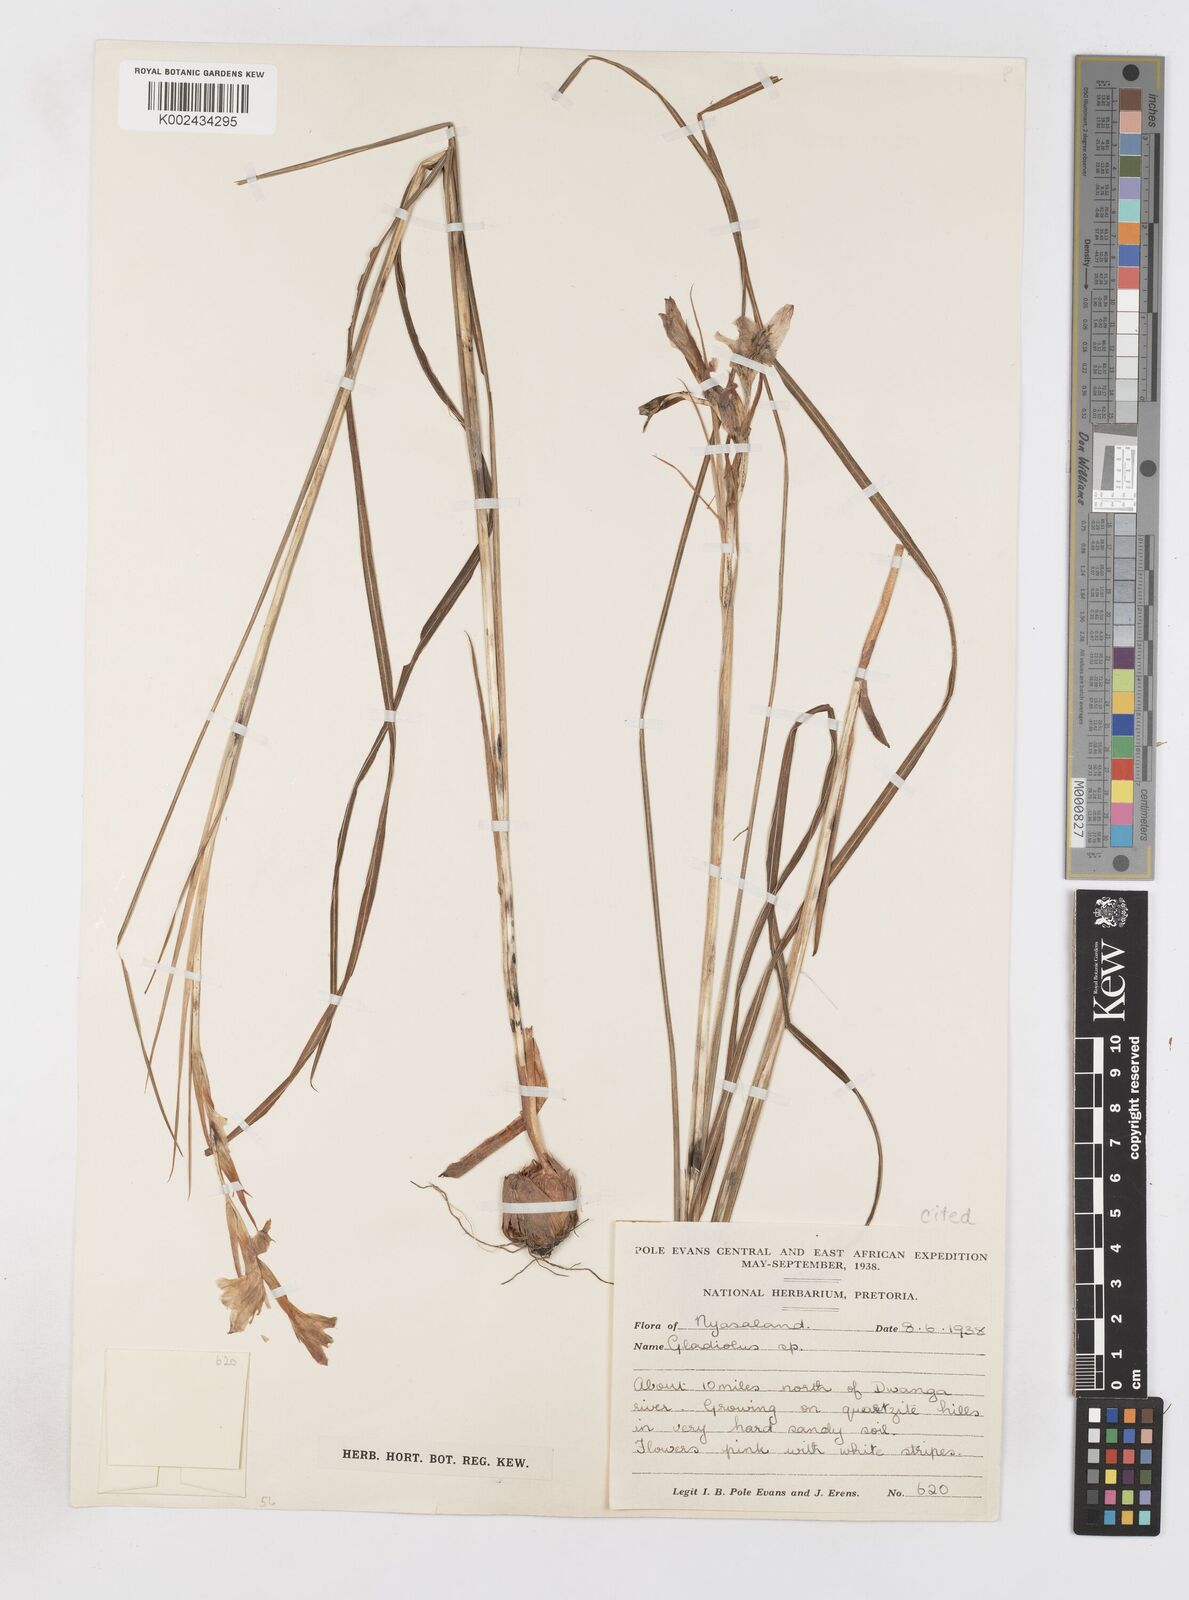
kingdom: Plantae
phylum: Tracheophyta
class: Liliopsida
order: Asparagales
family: Iridaceae
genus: Gladiolus
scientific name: Gladiolus erectiflorus
